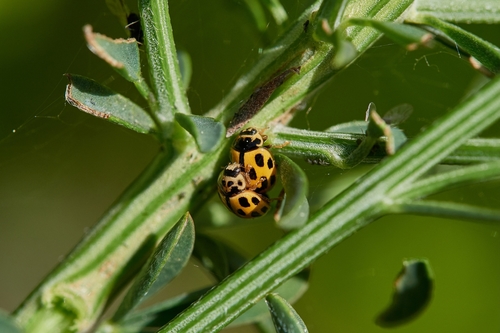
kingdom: Animalia
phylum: Arthropoda
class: Insecta
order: Coleoptera
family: Coccinellidae
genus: Propylaea
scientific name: Propylaea quatuordecimpunctata
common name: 14-spotted ladybird beetle
